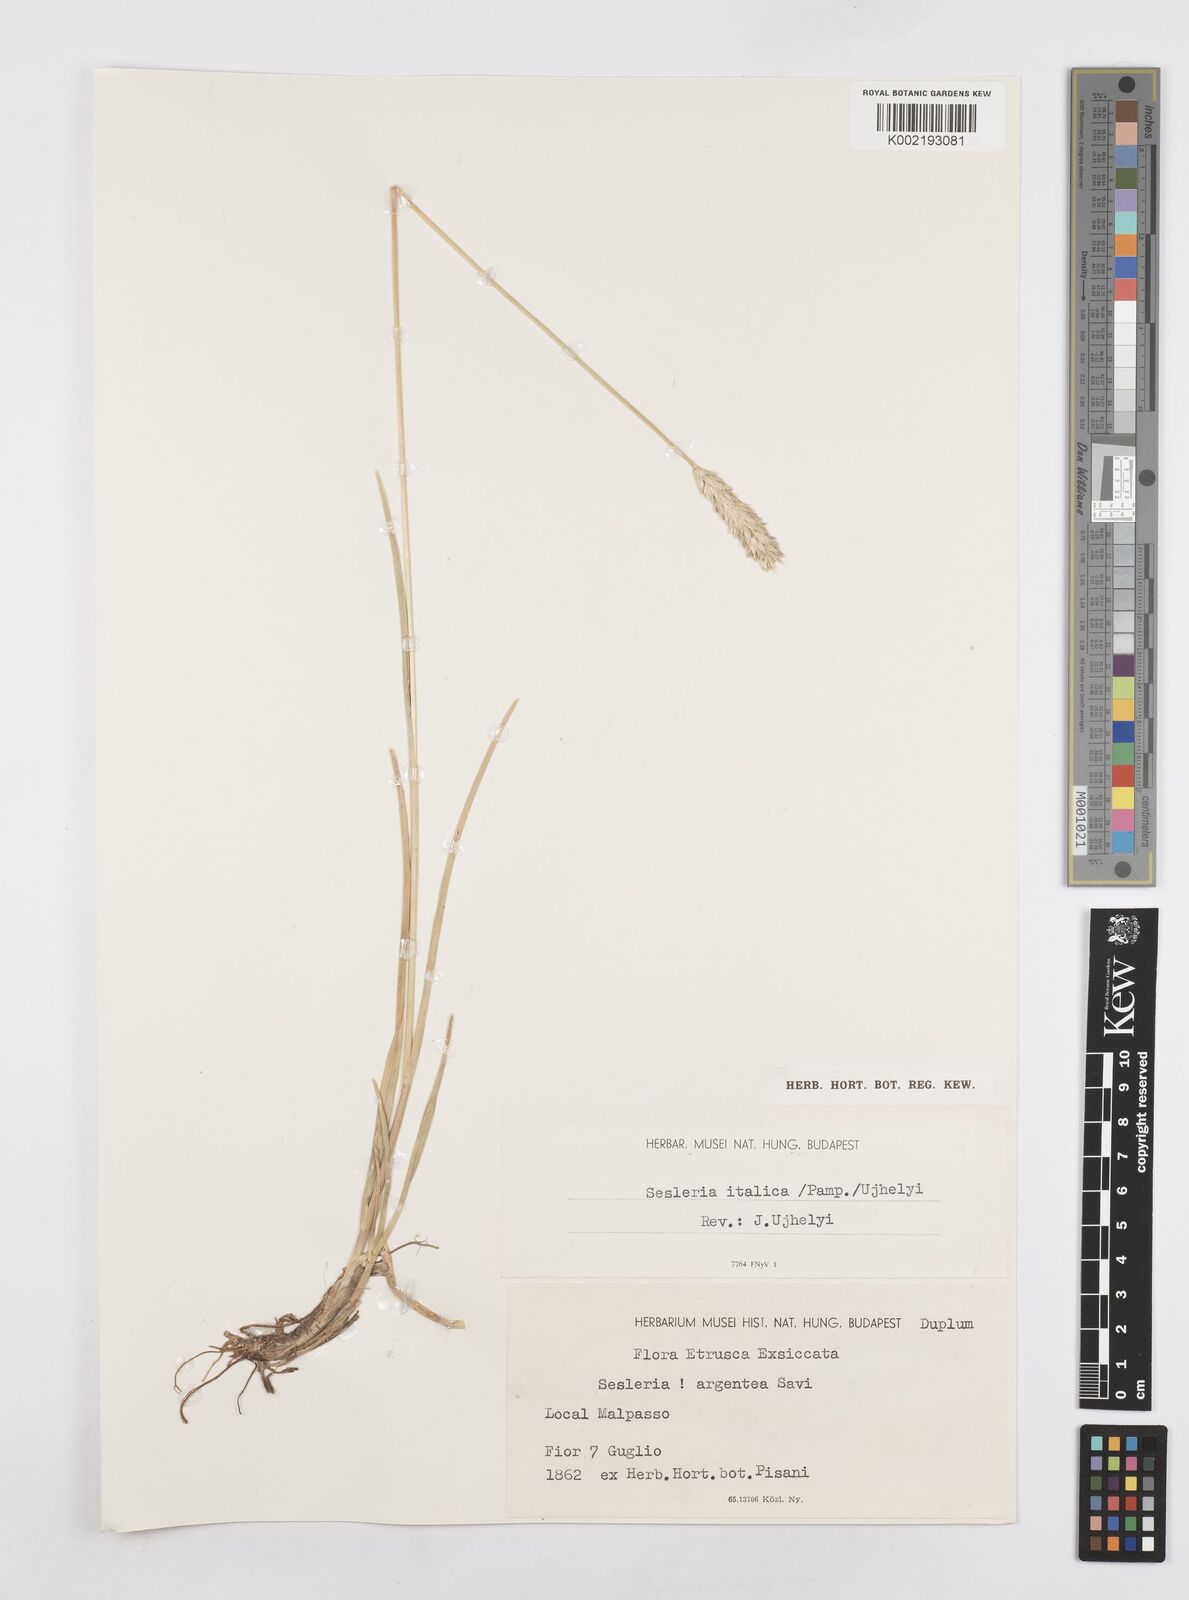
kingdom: Plantae
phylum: Tracheophyta
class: Liliopsida
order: Poales
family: Poaceae
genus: Sesleria
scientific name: Sesleria italica
